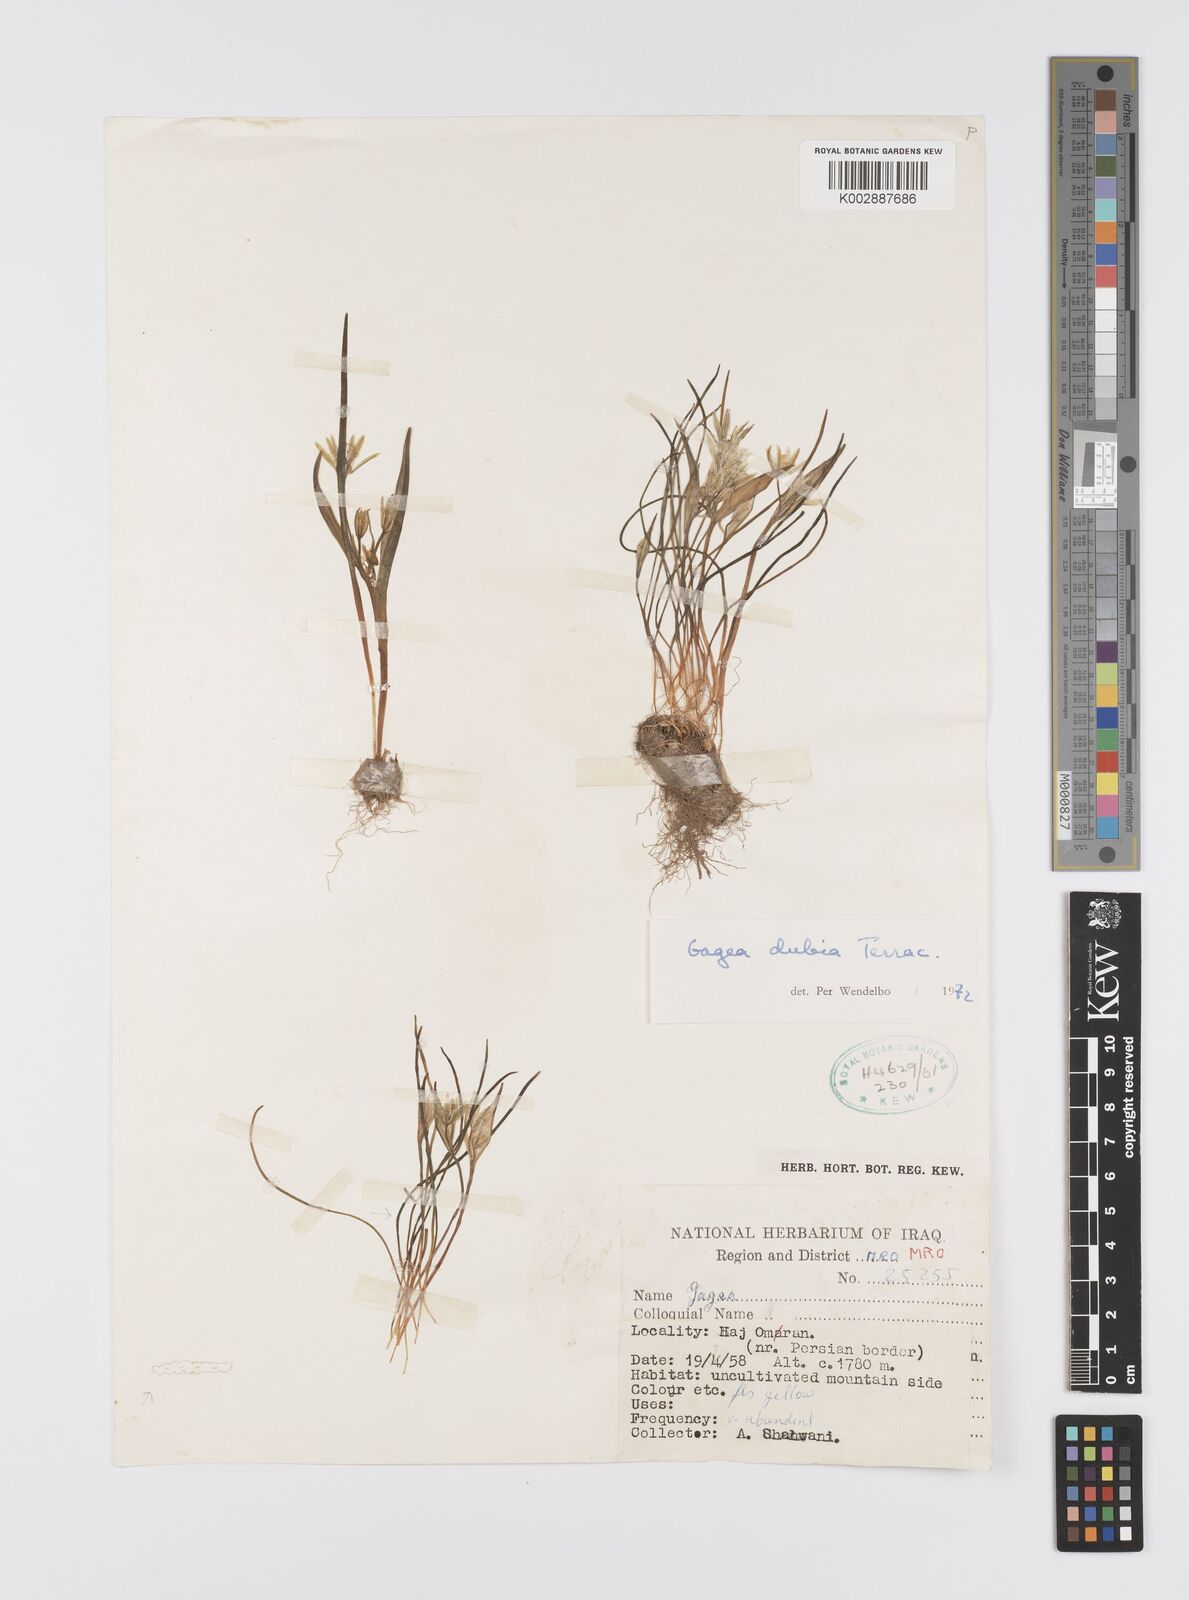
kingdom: Plantae
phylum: Tracheophyta
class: Liliopsida
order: Liliales
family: Liliaceae
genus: Gagea
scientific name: Gagea dubia
